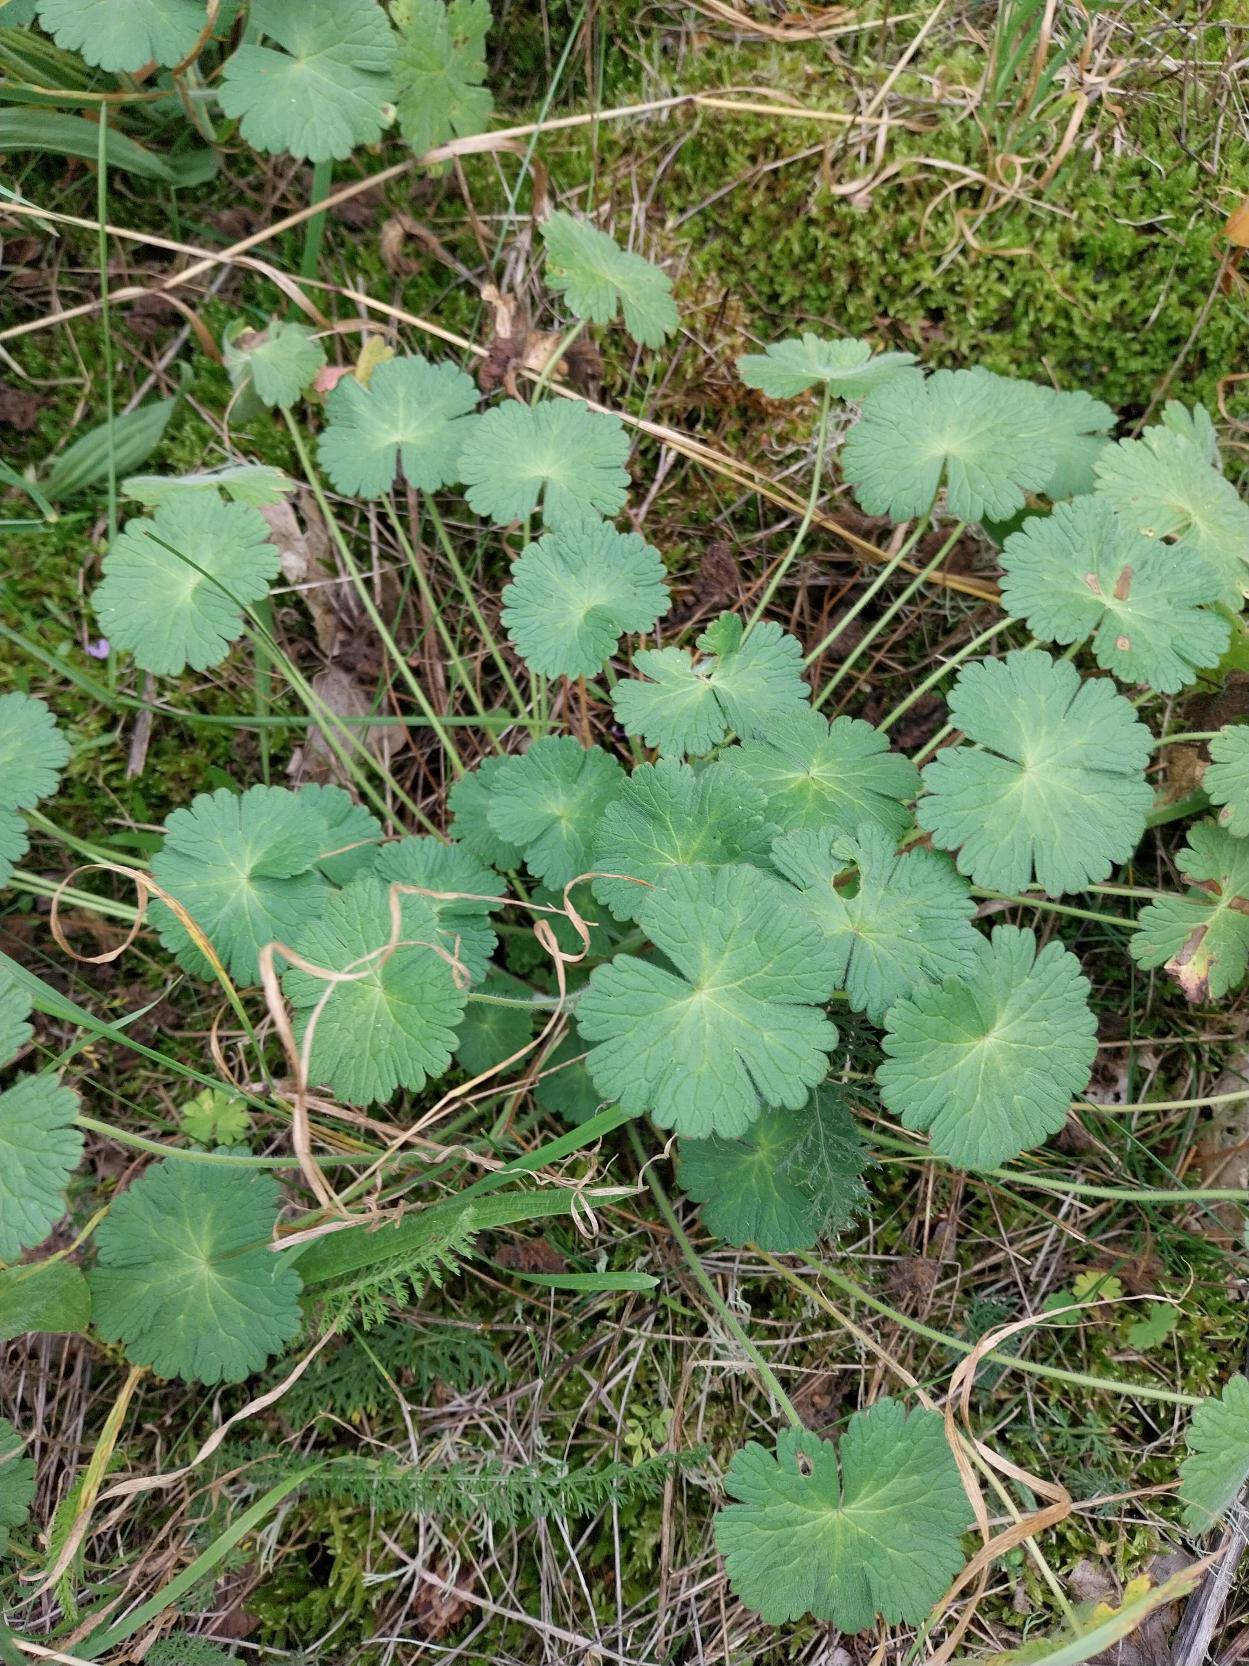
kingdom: Plantae
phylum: Tracheophyta
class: Magnoliopsida
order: Geraniales
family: Geraniaceae
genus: Geranium
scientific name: Geranium pyrenaicum
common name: Pyrenæisk storkenæb
